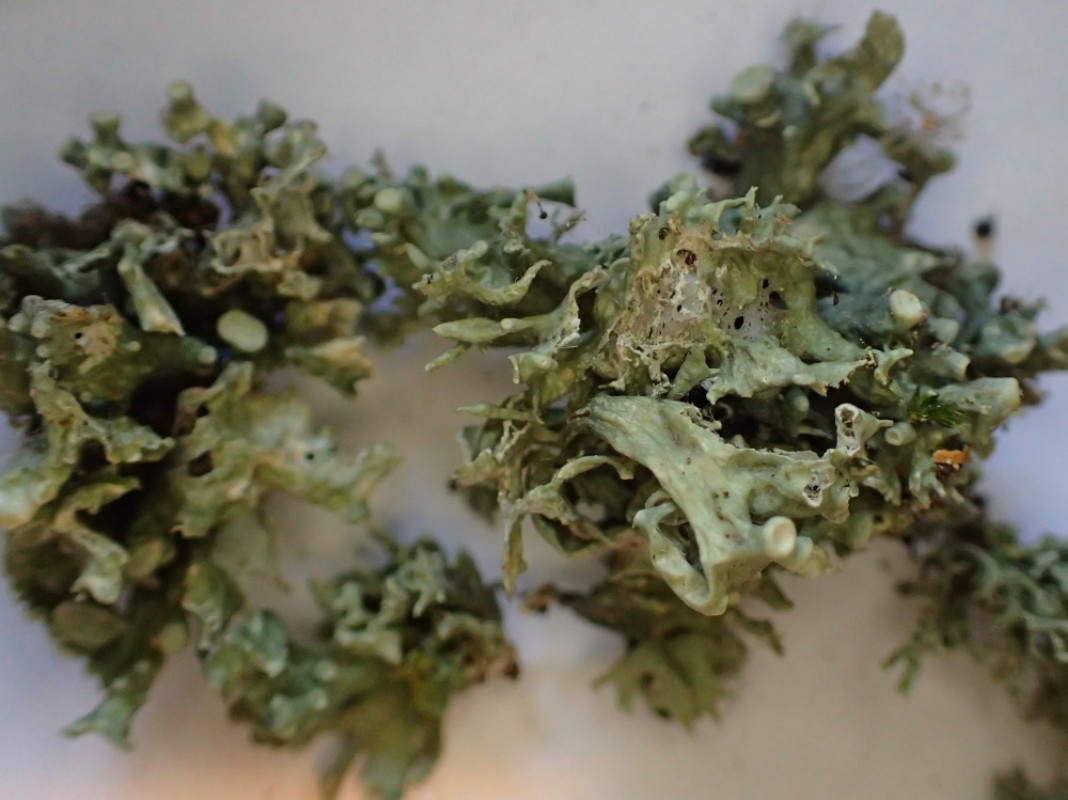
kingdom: Fungi
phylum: Ascomycota
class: Lecanoromycetes
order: Lecanorales
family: Ramalinaceae
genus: Ramalina
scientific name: Ramalina fastigiata
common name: tue-grenlav
